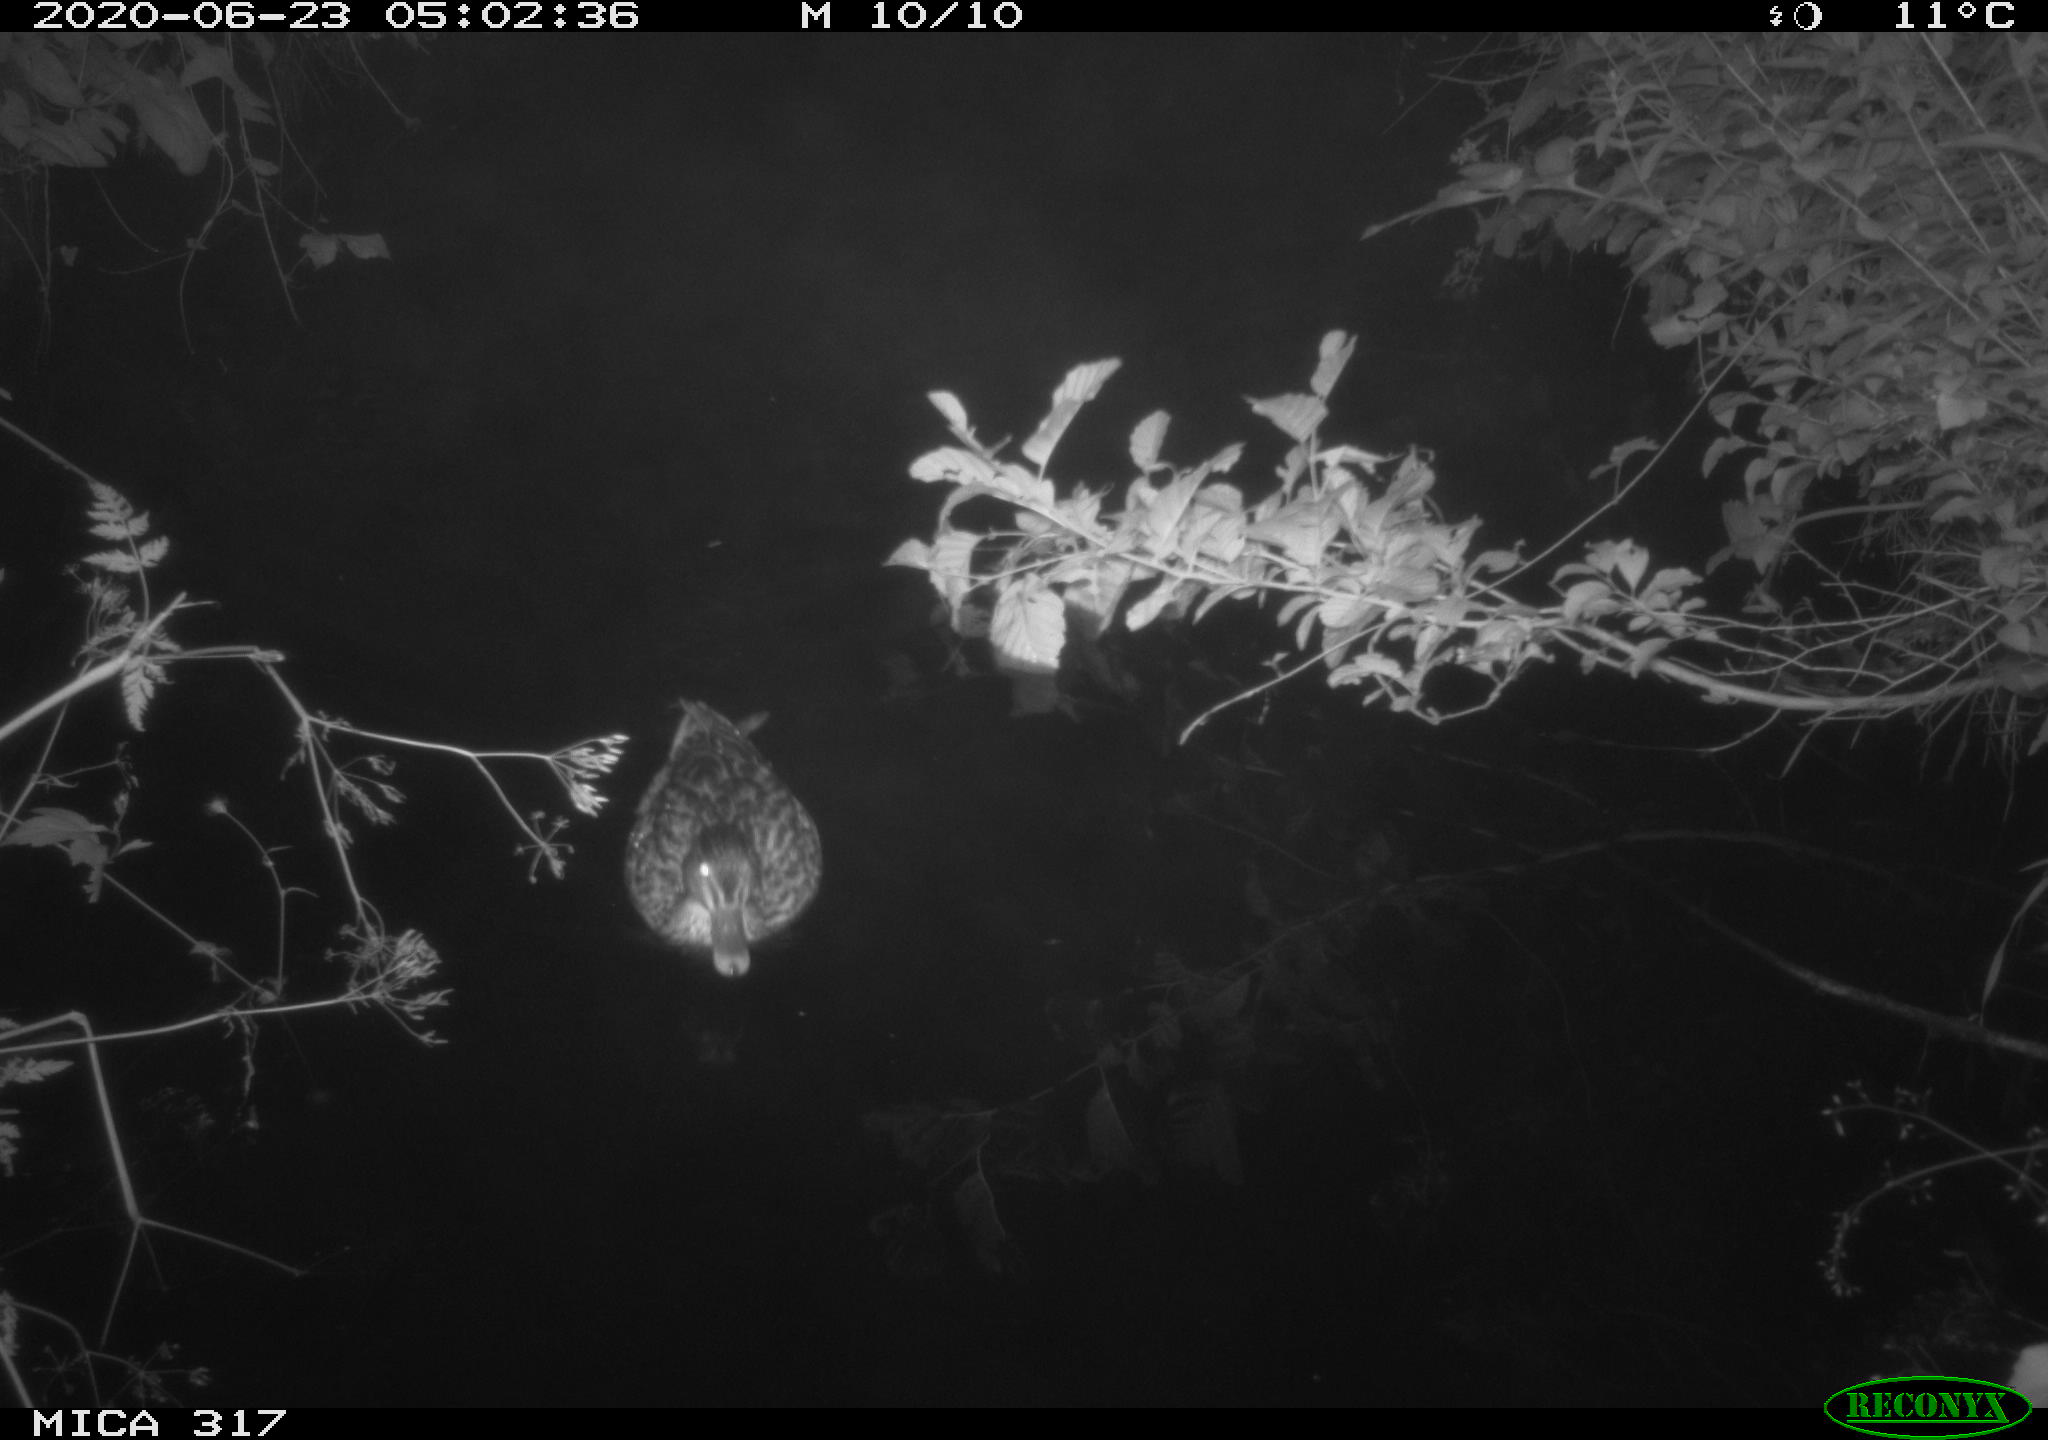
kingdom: Animalia
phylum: Chordata
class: Aves
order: Anseriformes
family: Anatidae
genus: Anas
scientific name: Anas platyrhynchos
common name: Mallard
